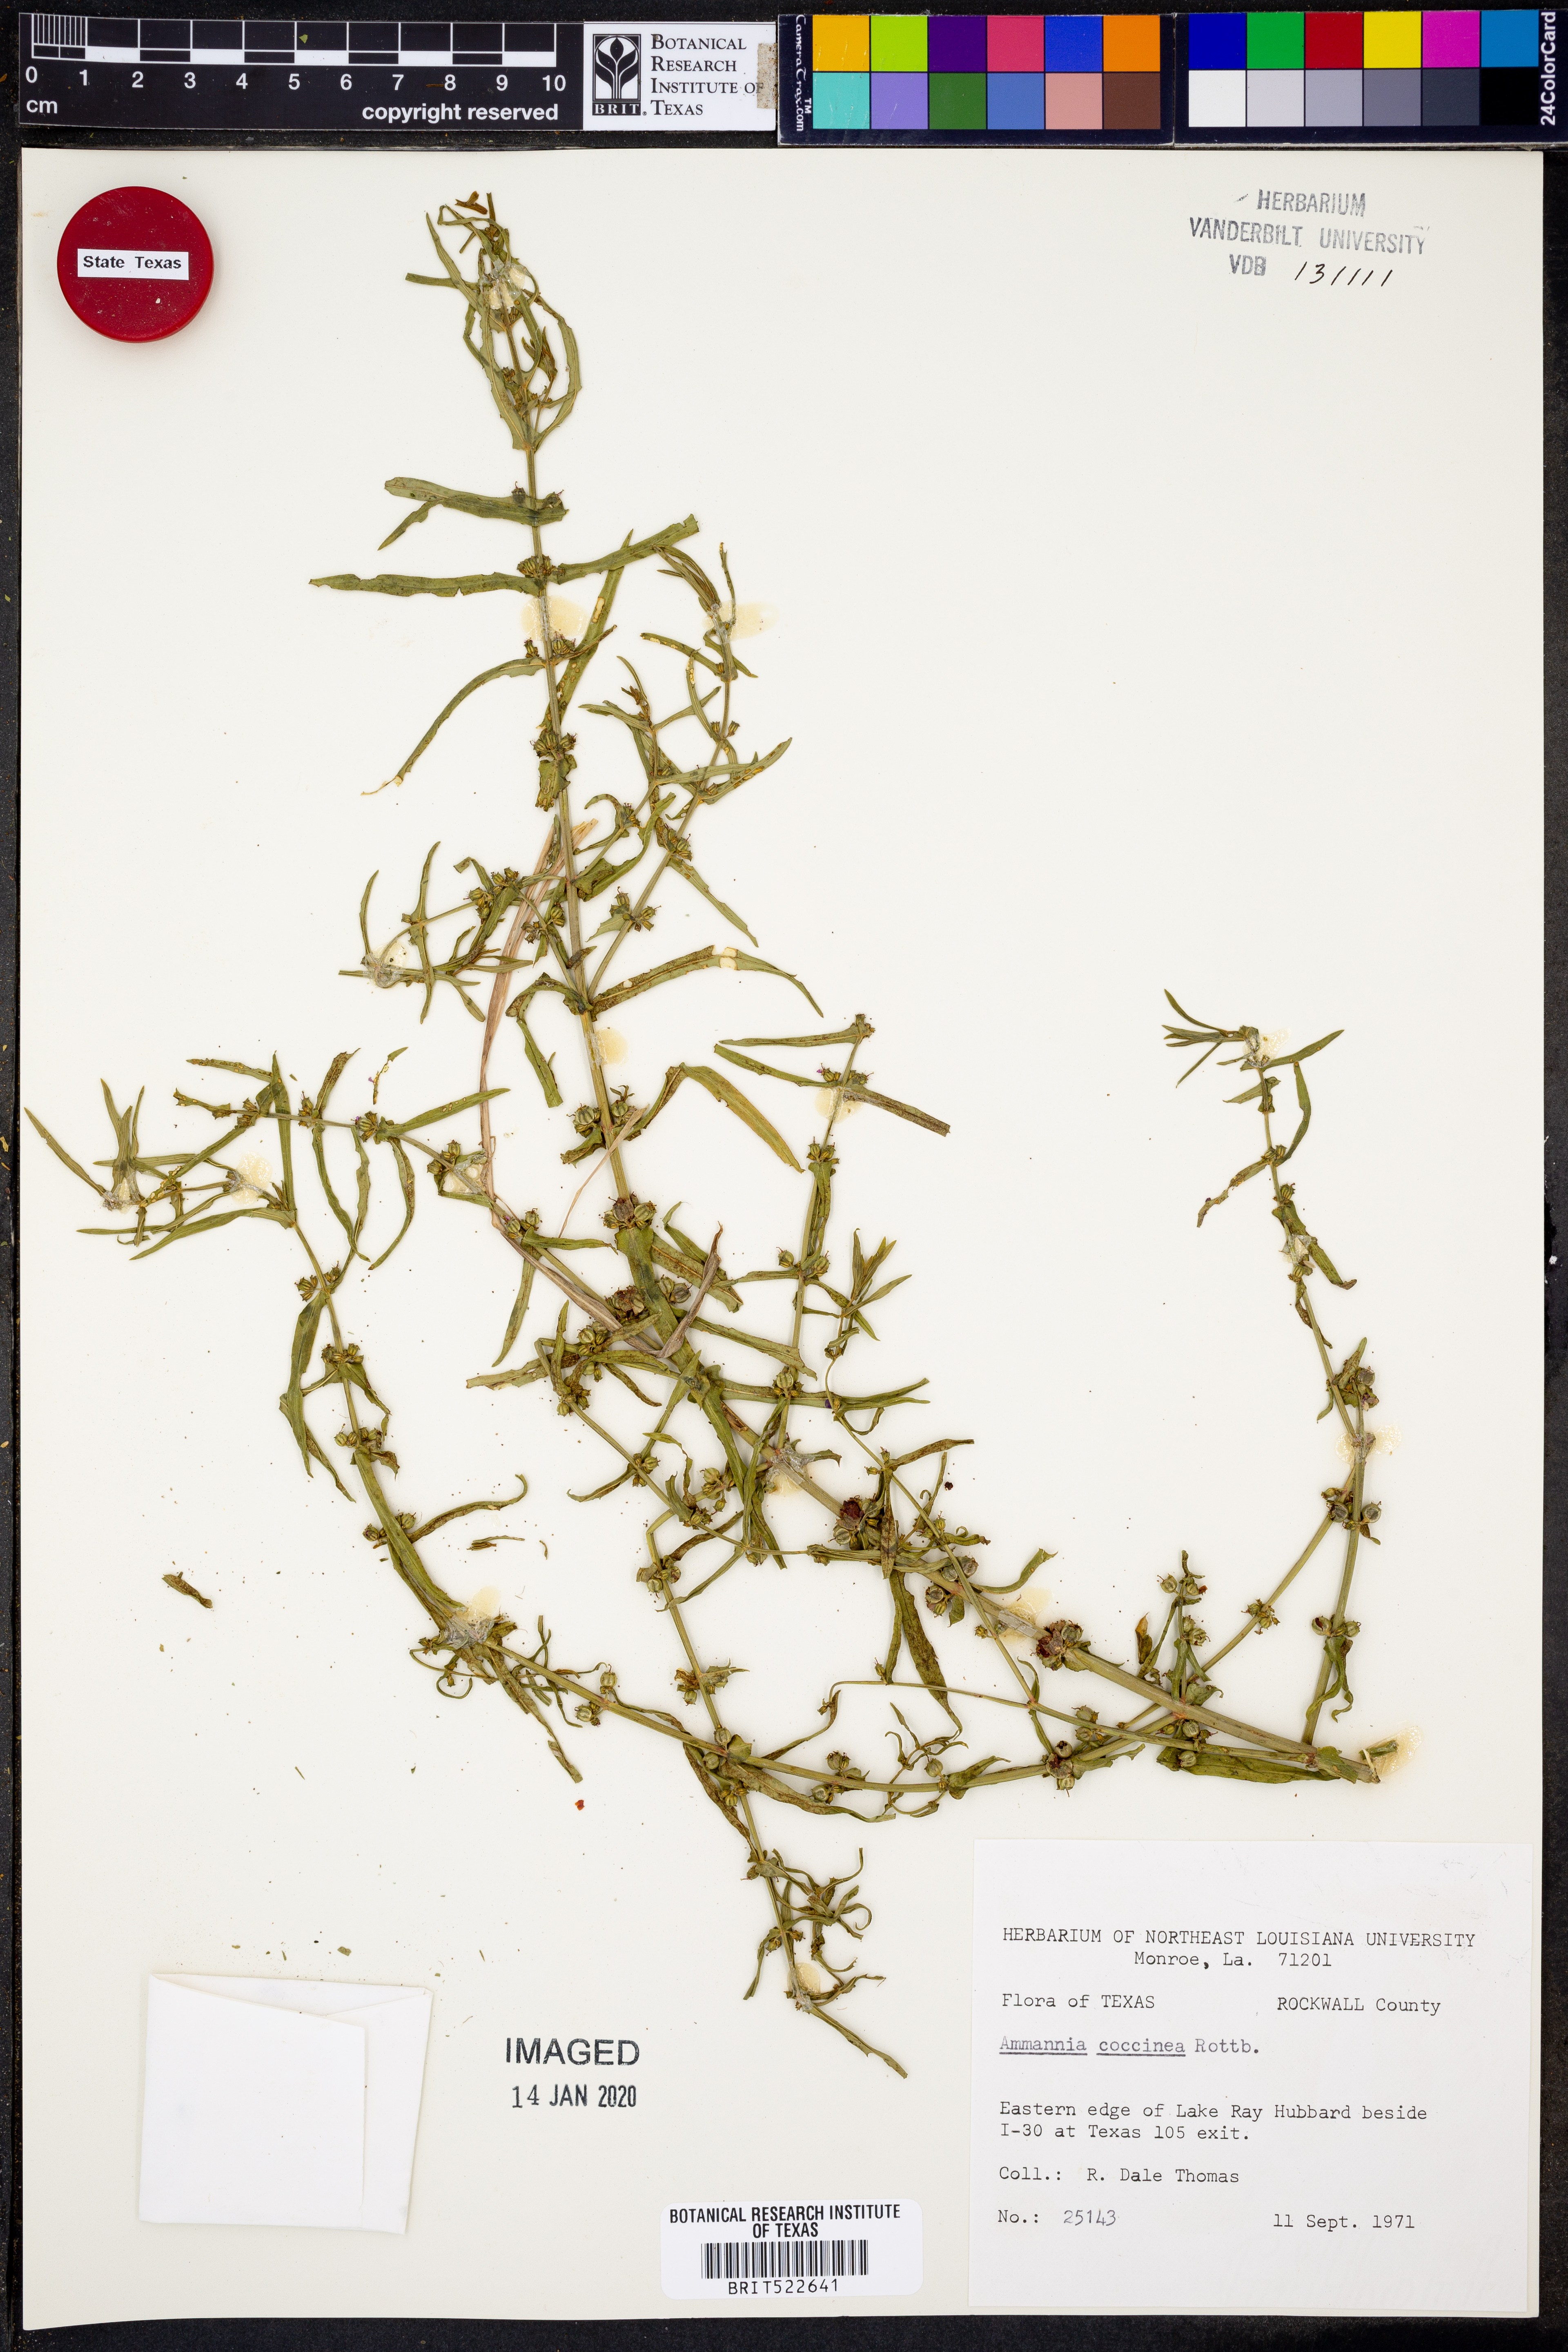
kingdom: Plantae
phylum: Tracheophyta
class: Magnoliopsida
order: Myrtales
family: Lythraceae
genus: Ammannia
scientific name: Ammannia coccinea
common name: Valley redstem
